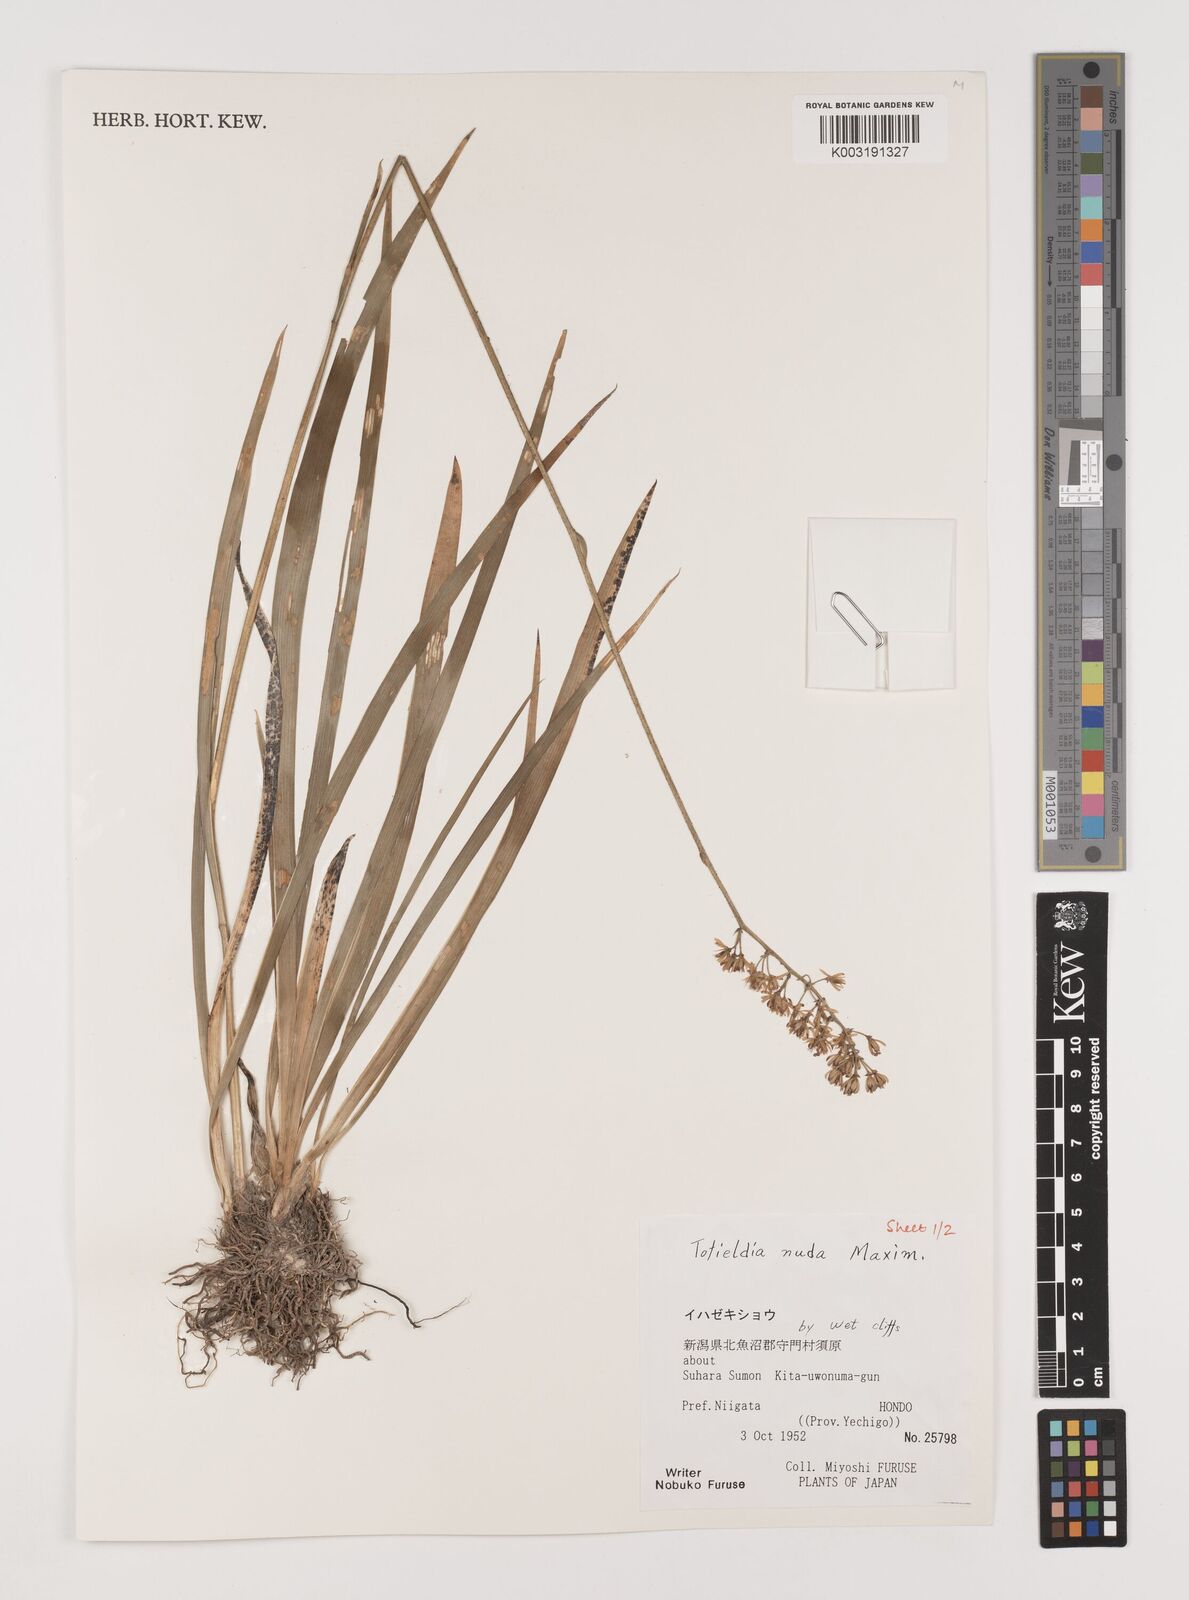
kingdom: Plantae
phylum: Tracheophyta
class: Liliopsida
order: Alismatales
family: Tofieldiaceae
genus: Tofieldia
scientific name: Tofieldia nuda
